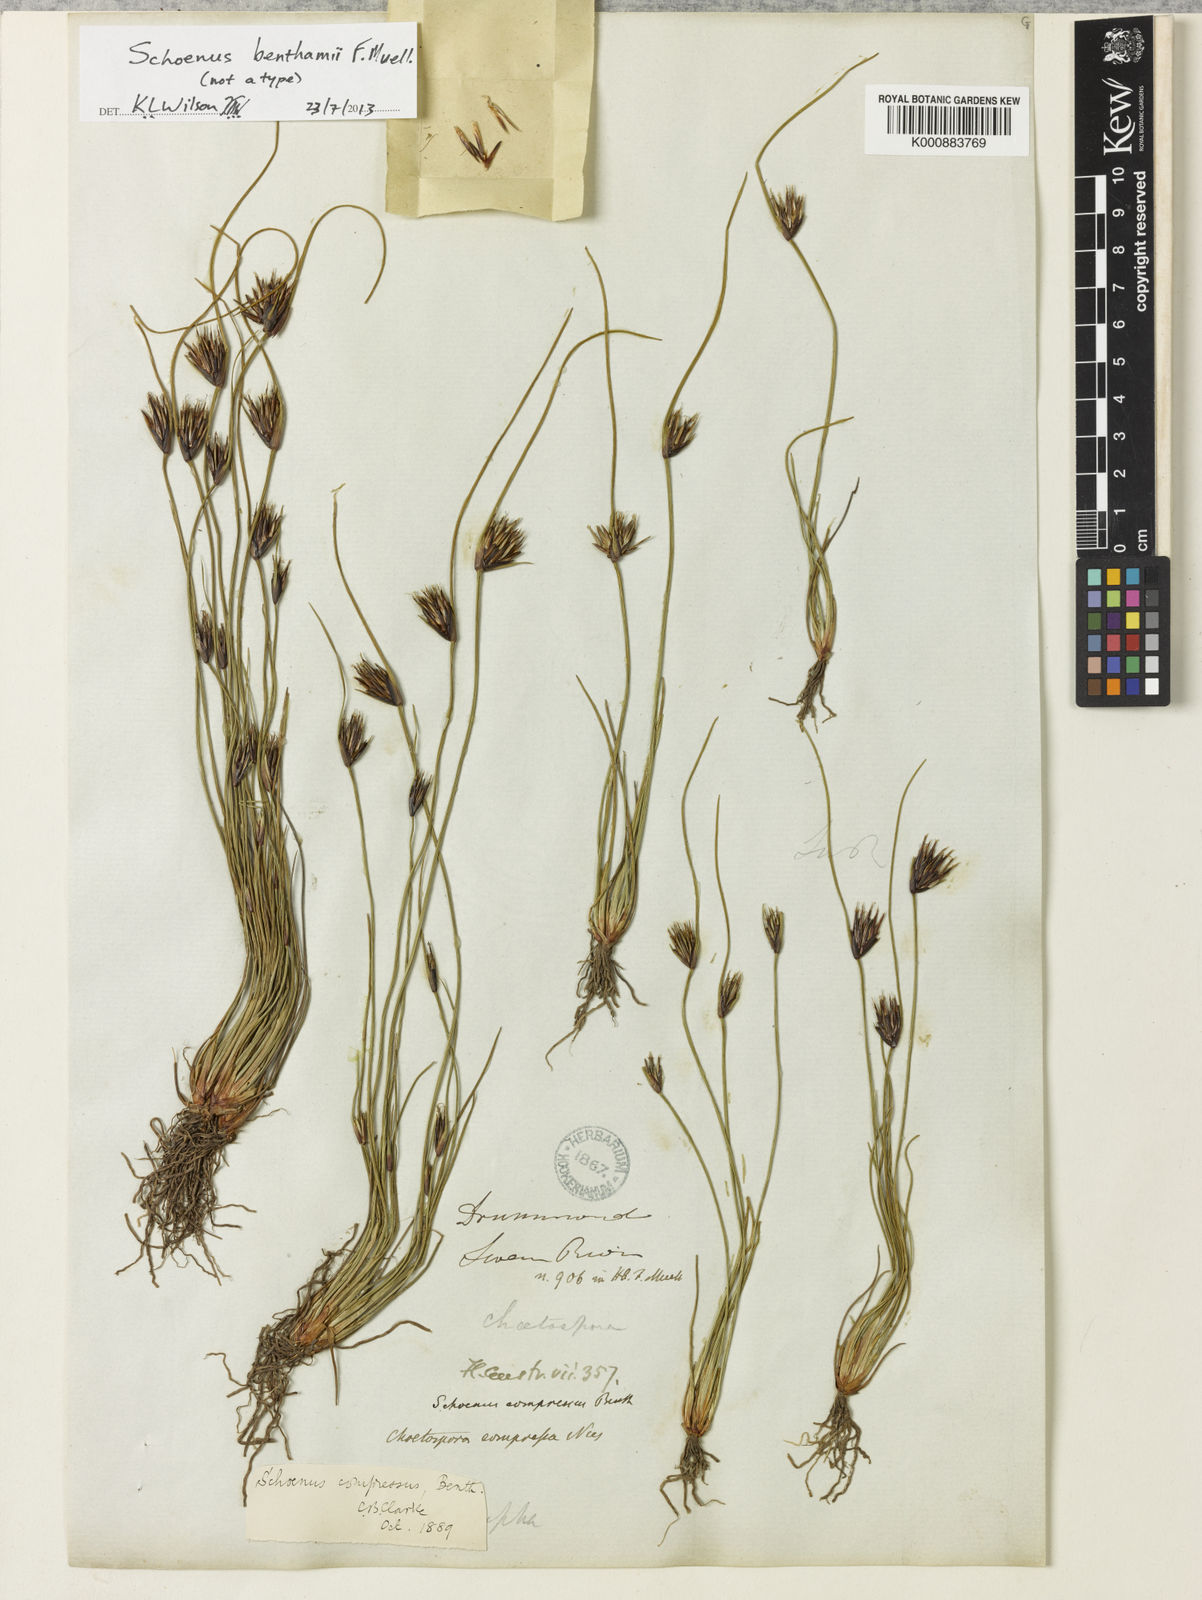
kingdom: Plantae
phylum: Tracheophyta
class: Liliopsida
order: Poales
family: Cyperaceae
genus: Schoenus
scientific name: Schoenus benthamii
